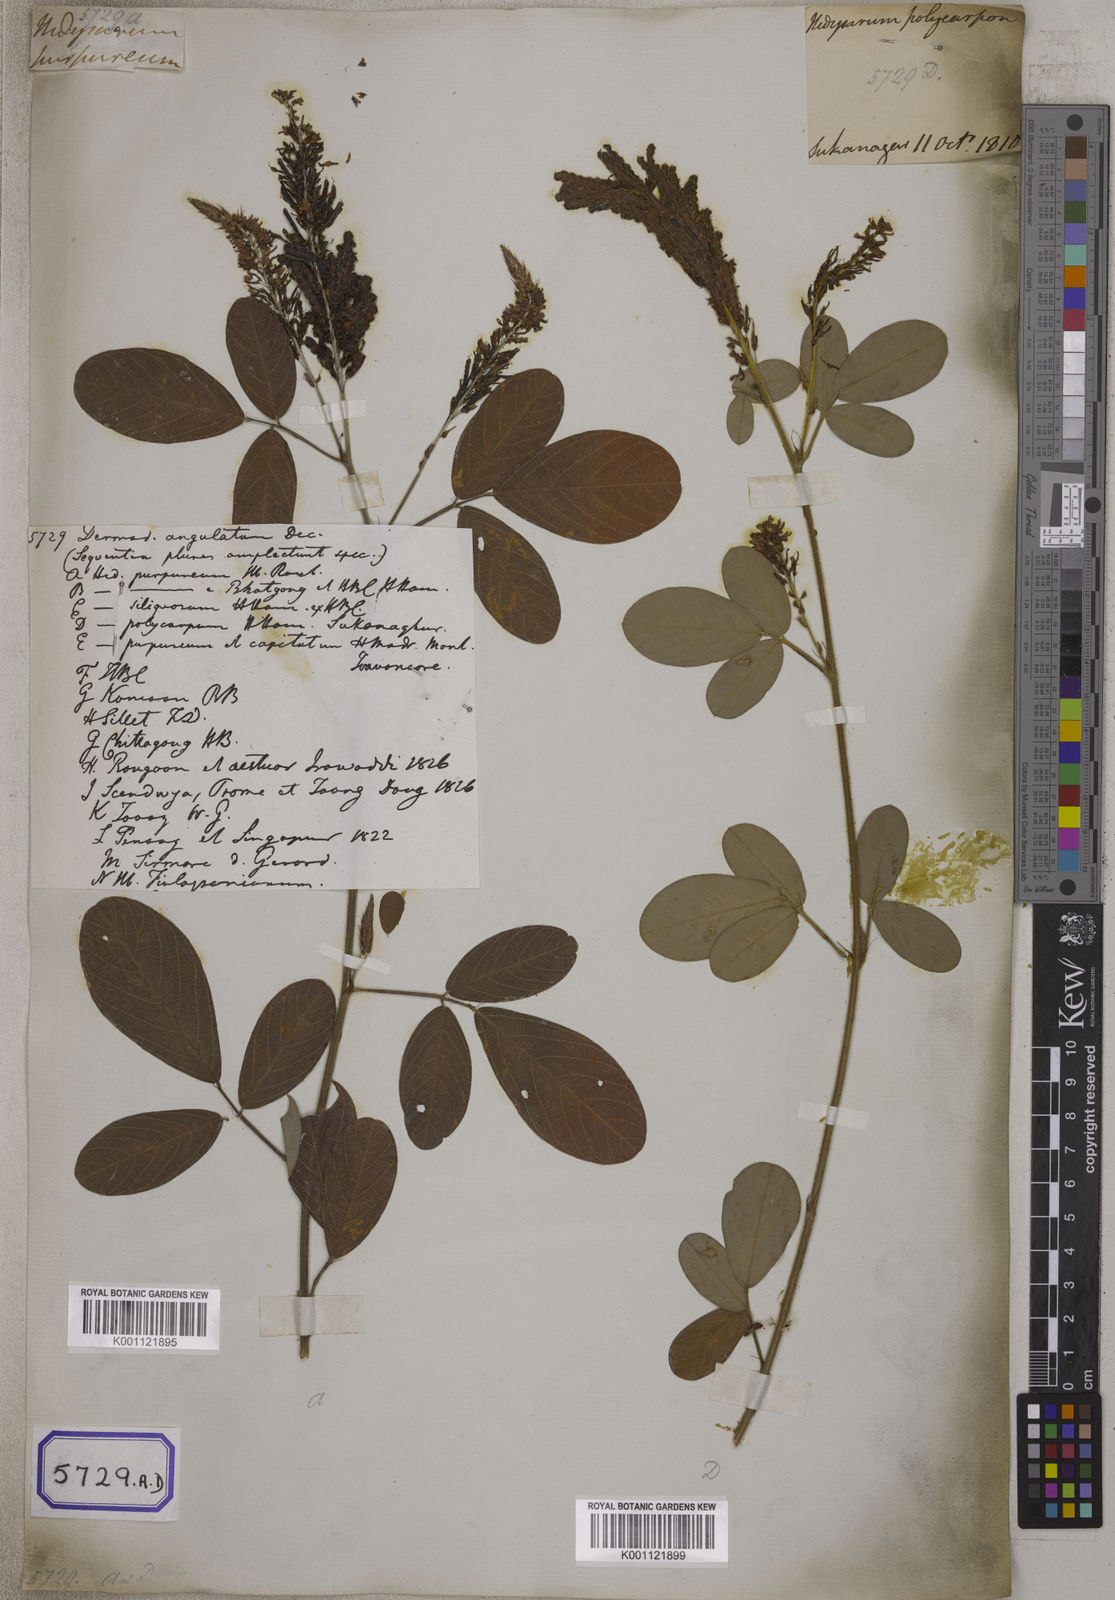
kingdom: Plantae
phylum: Tracheophyta
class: Magnoliopsida
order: Fabales
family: Fabaceae
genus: Desmodium
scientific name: Desmodium
